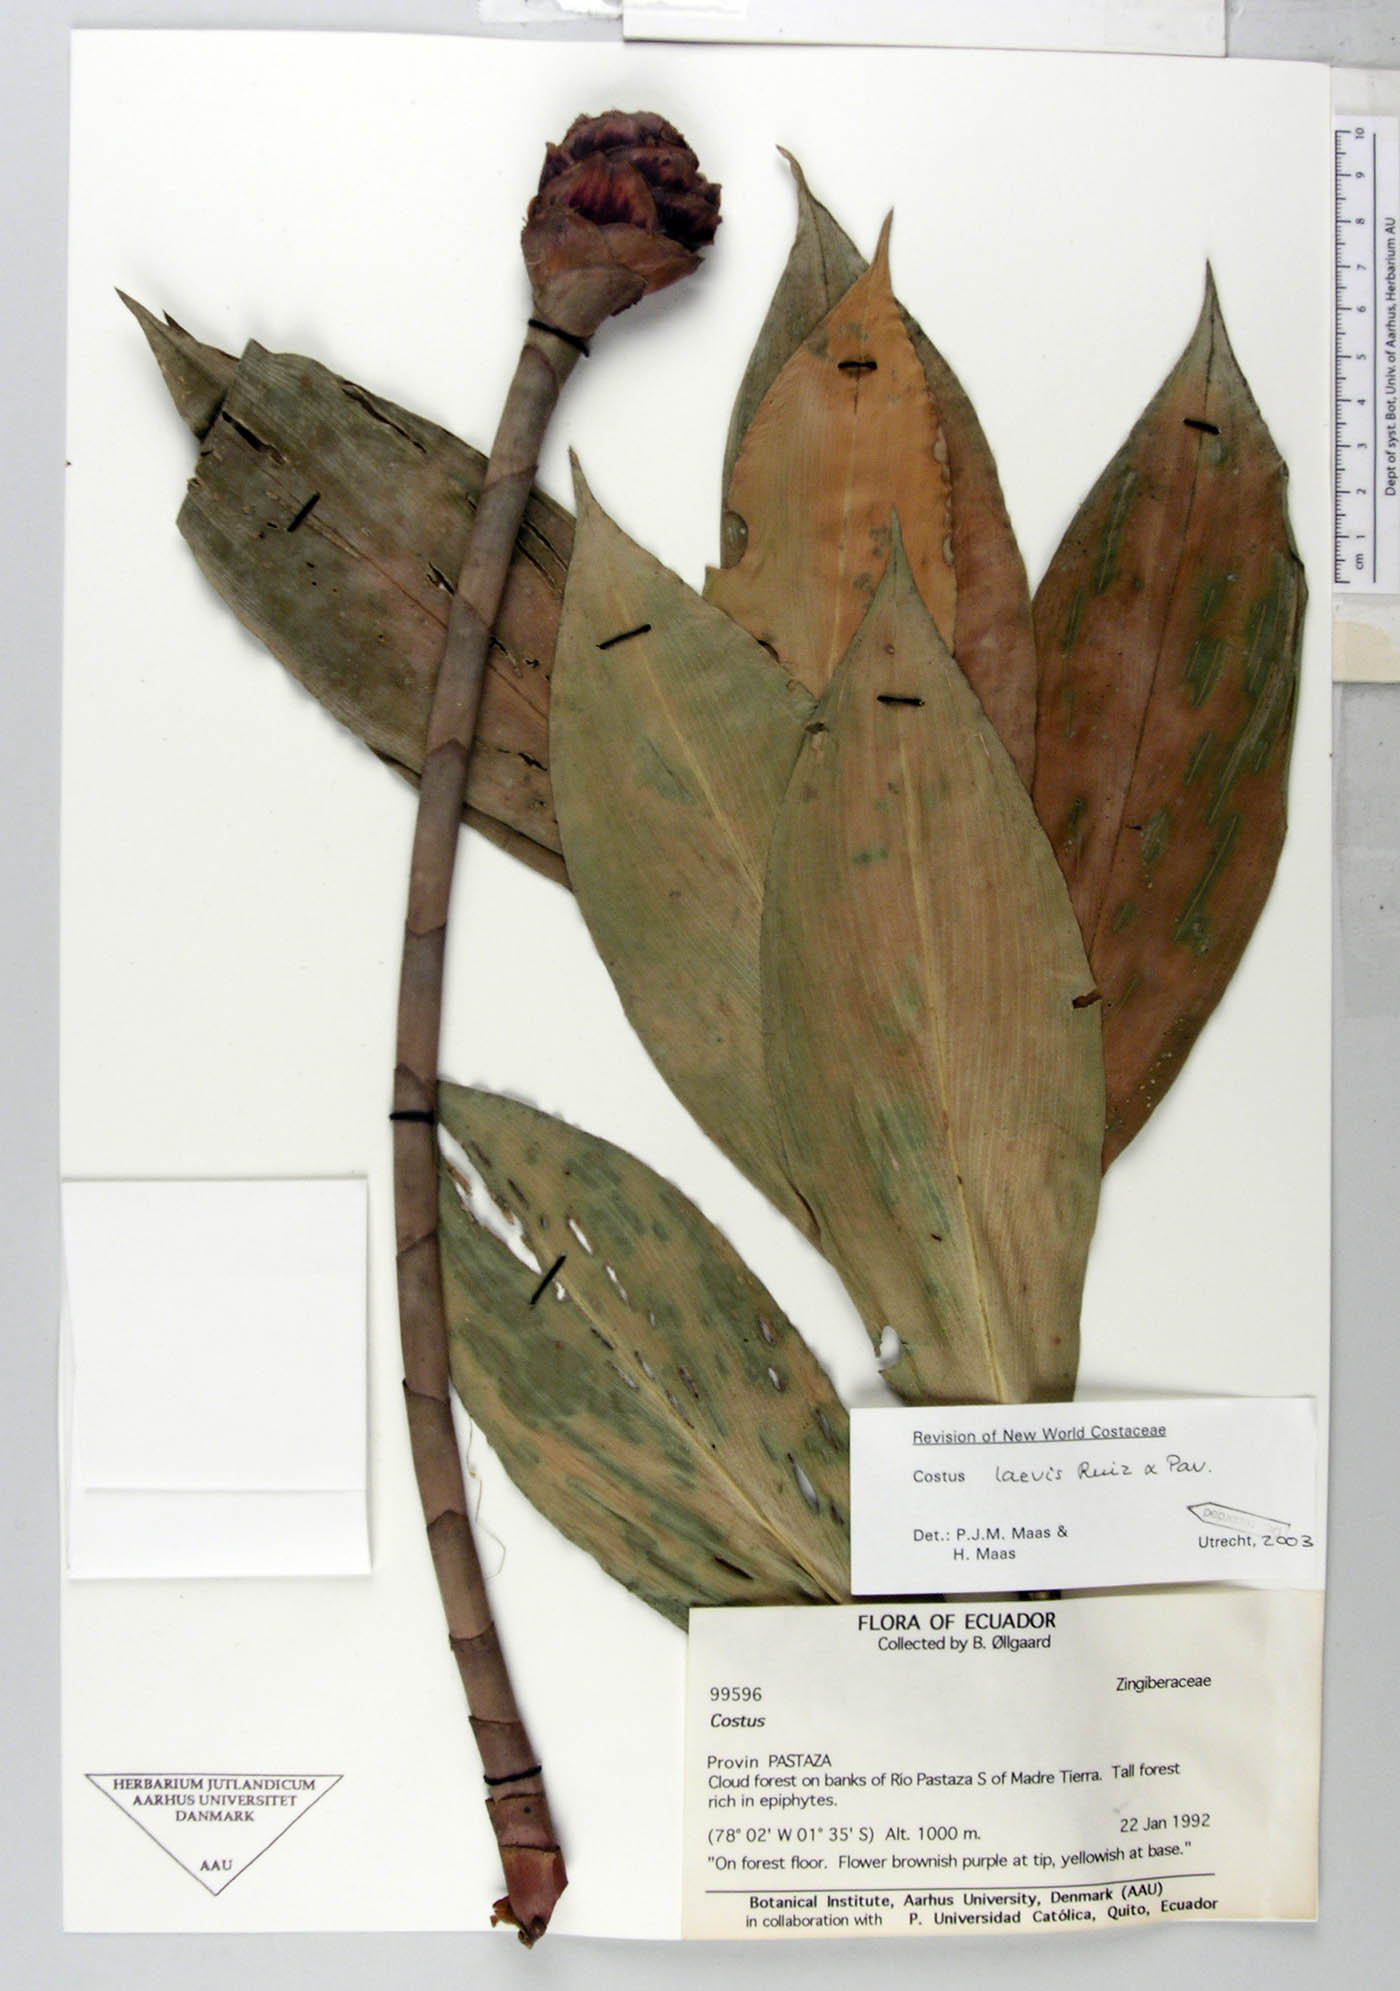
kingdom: Plantae
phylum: Tracheophyta
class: Liliopsida
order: Zingiberales
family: Costaceae
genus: Costus
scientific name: Costus laevis
